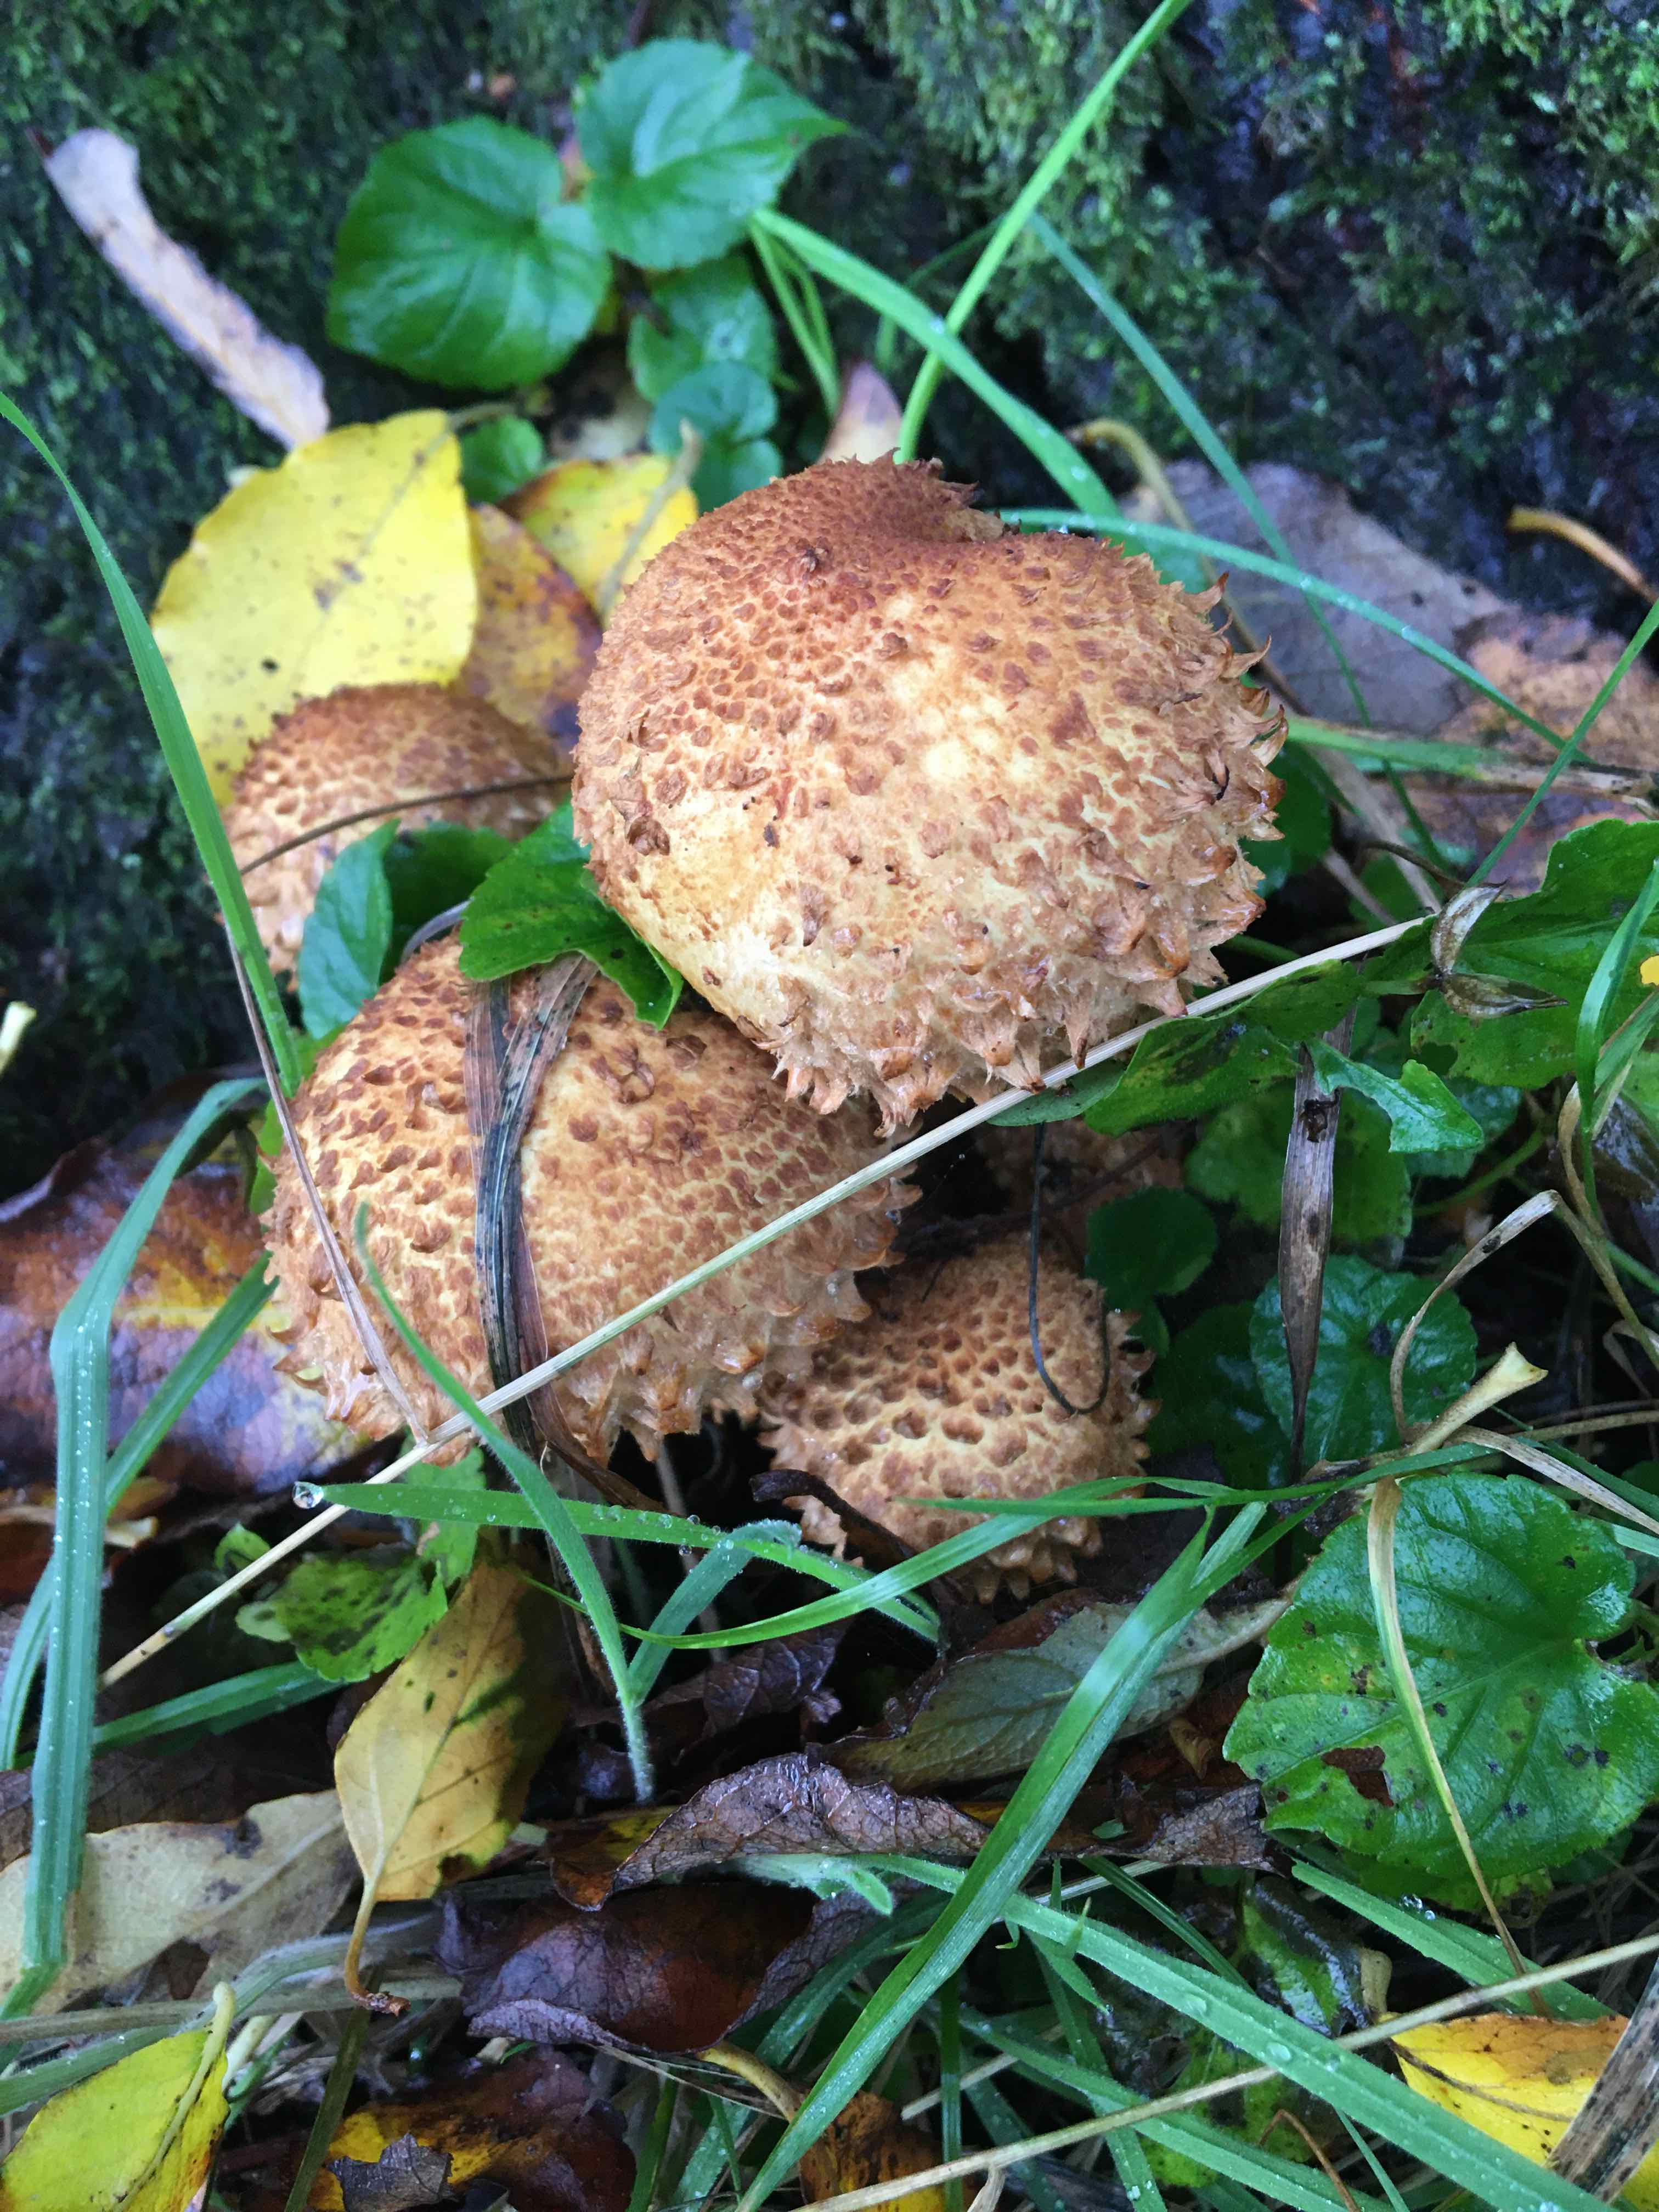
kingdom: Fungi
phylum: Basidiomycota
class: Agaricomycetes
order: Agaricales
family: Strophariaceae
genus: Pholiota
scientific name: Pholiota squarrosa
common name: krumskællet skælhat
